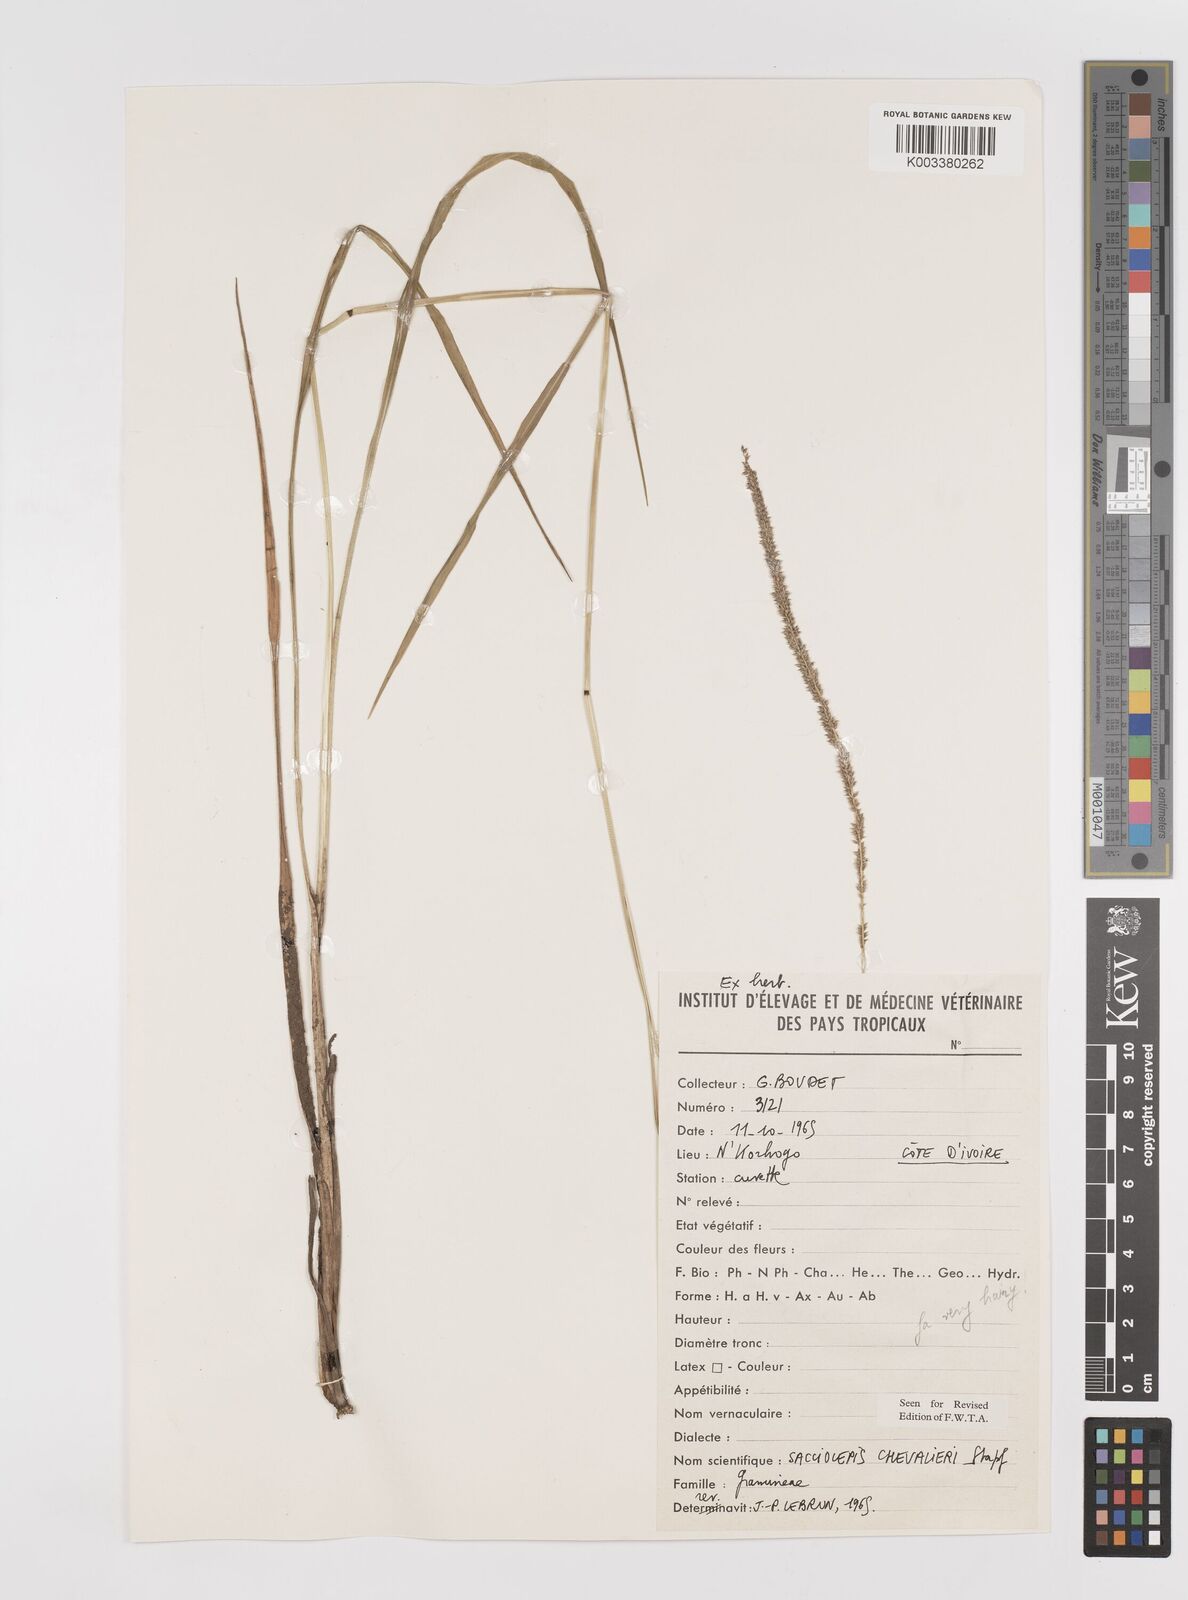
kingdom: Plantae
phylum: Tracheophyta
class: Liliopsida
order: Poales
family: Poaceae
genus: Sacciolepis
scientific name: Sacciolepis typhura
